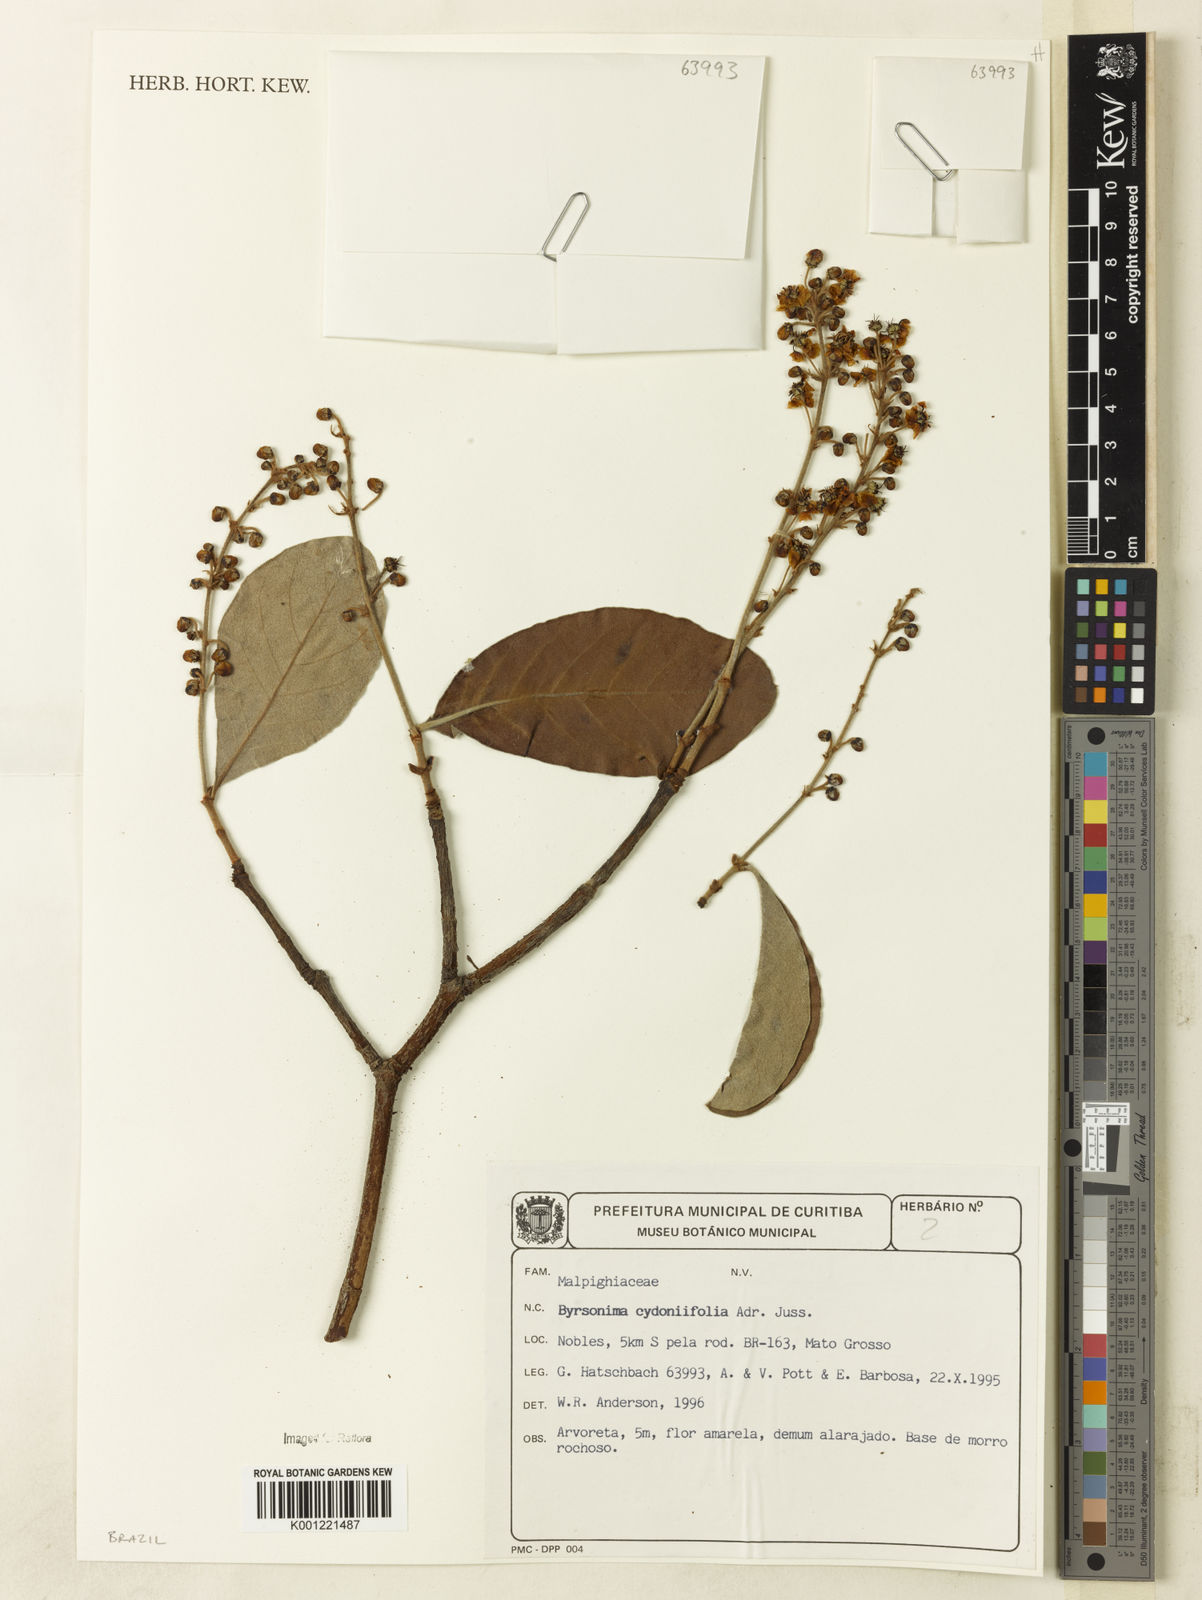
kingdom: Plantae
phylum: Tracheophyta
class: Magnoliopsida
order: Malpighiales
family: Malpighiaceae
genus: Byrsonima
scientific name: Byrsonima cydoniifolia
